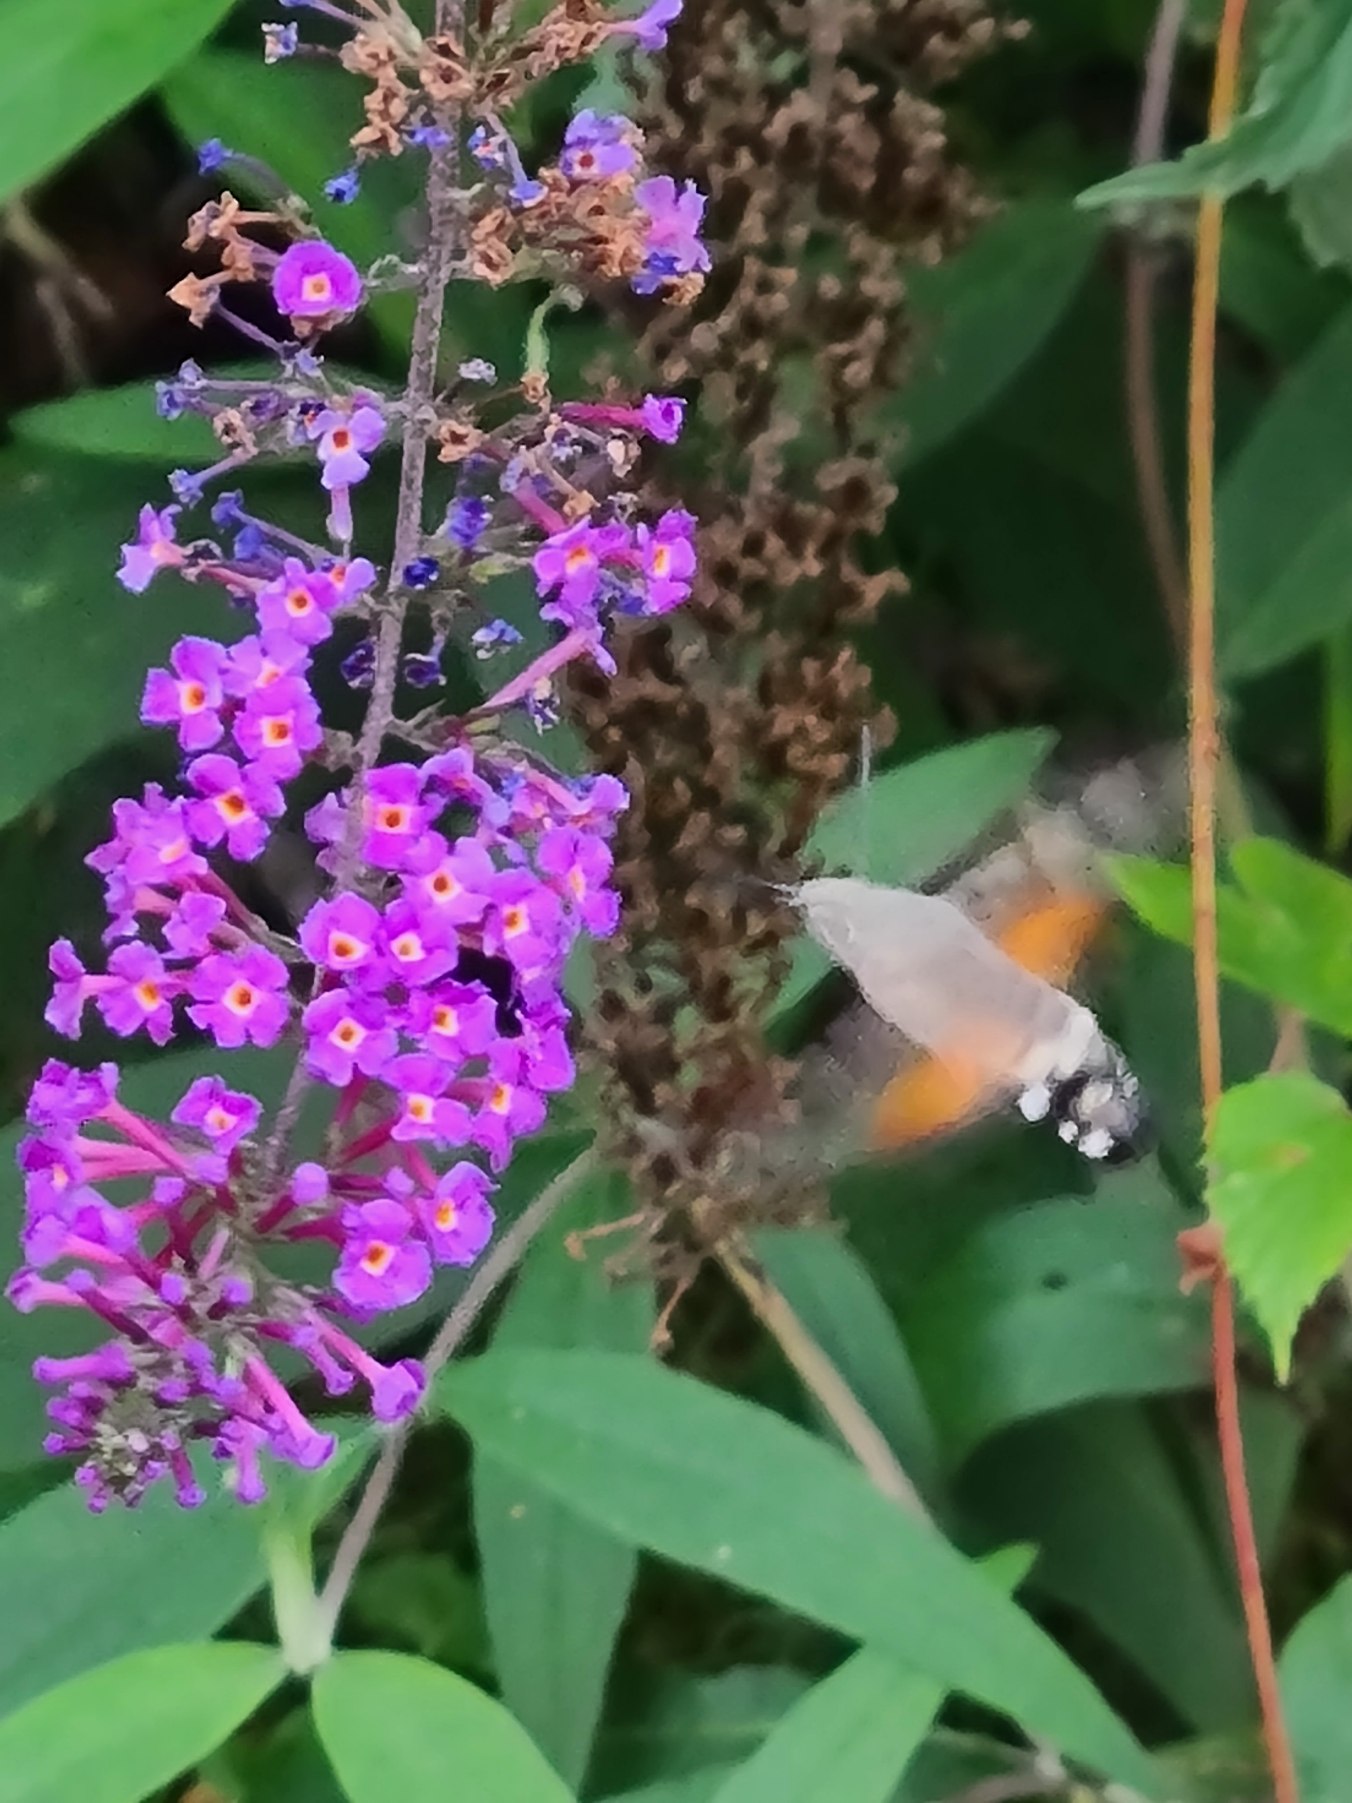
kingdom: Animalia
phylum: Arthropoda
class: Insecta
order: Lepidoptera
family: Sphingidae
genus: Macroglossum
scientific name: Macroglossum stellatarum
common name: Duehale
